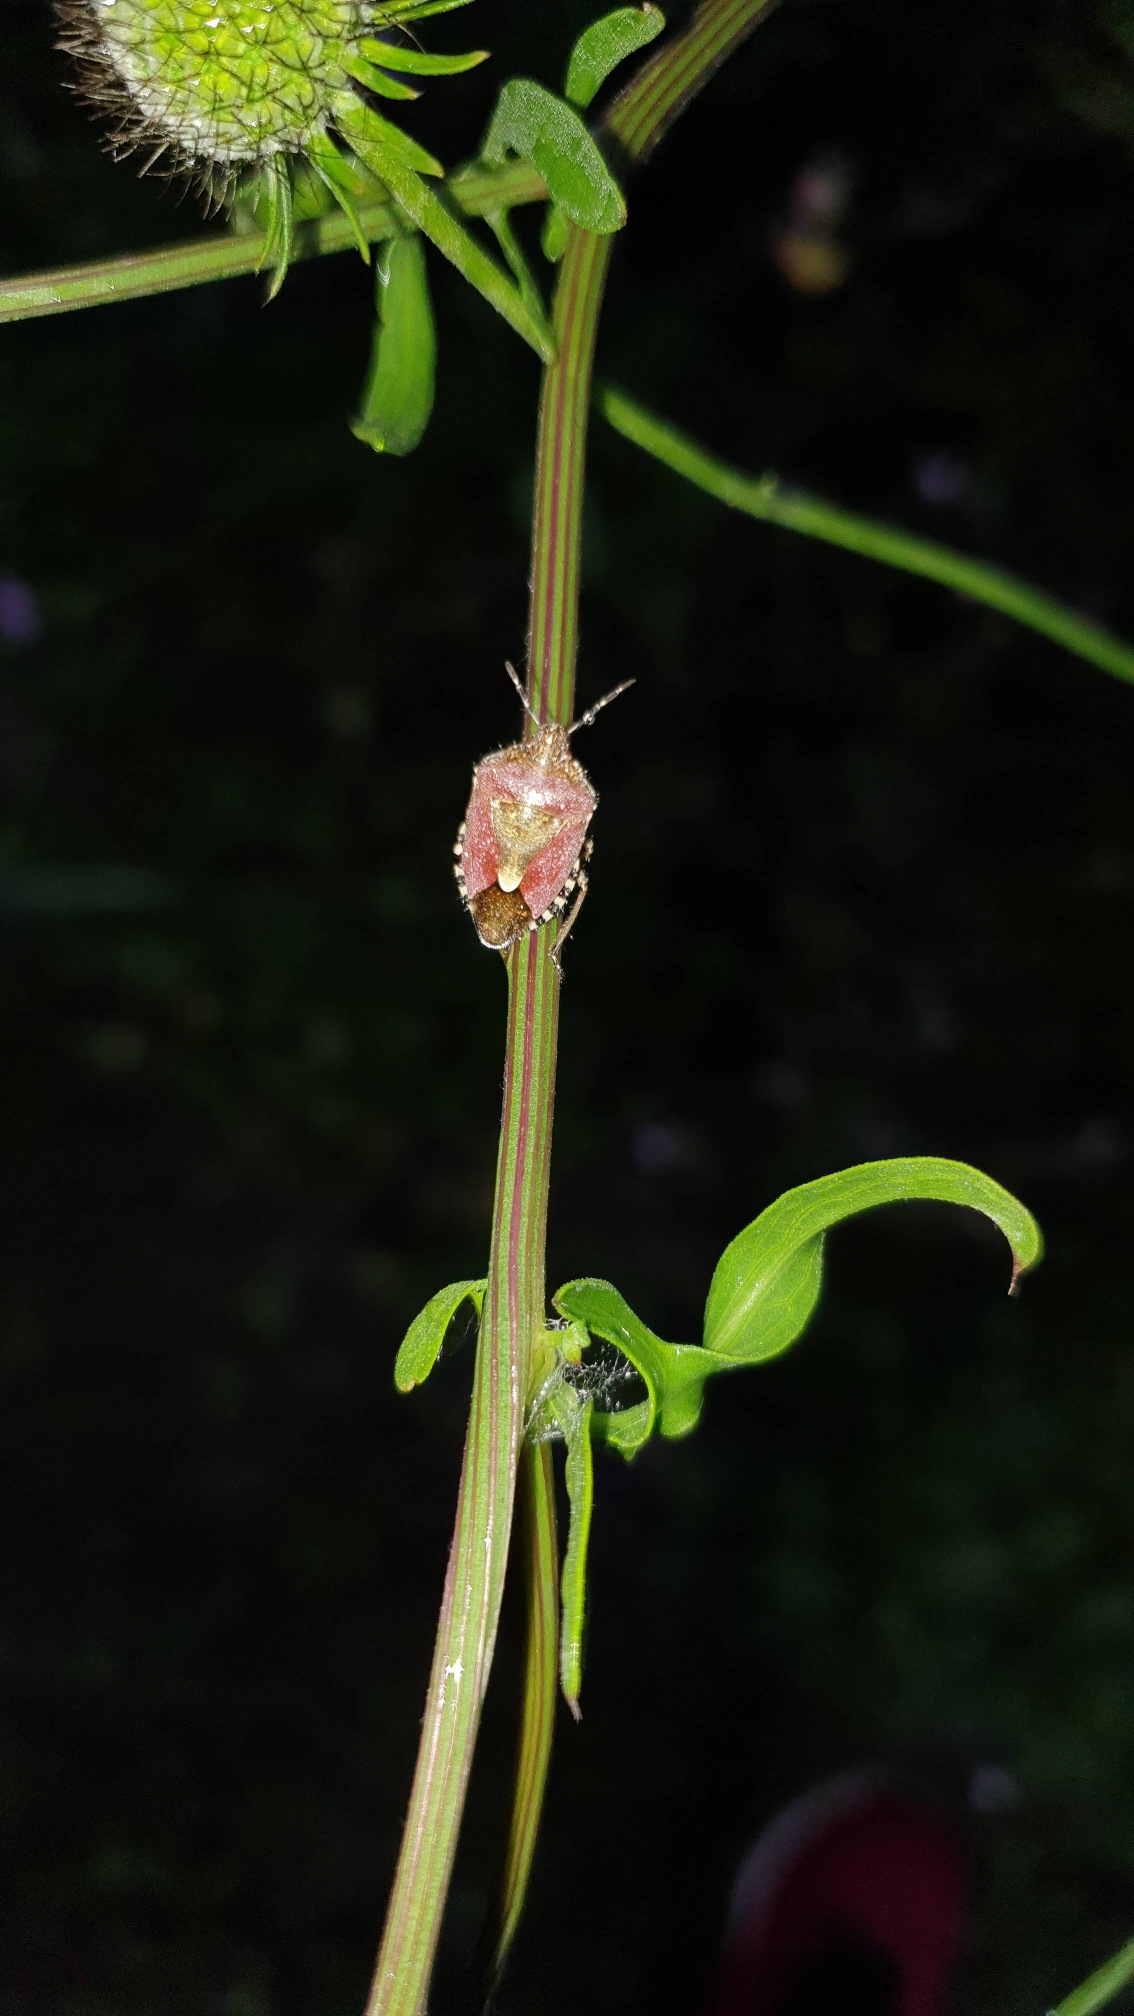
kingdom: Animalia
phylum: Arthropoda
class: Insecta
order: Hemiptera
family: Pentatomidae
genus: Dolycoris
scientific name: Dolycoris baccarum
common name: Almindelig bærtæge
